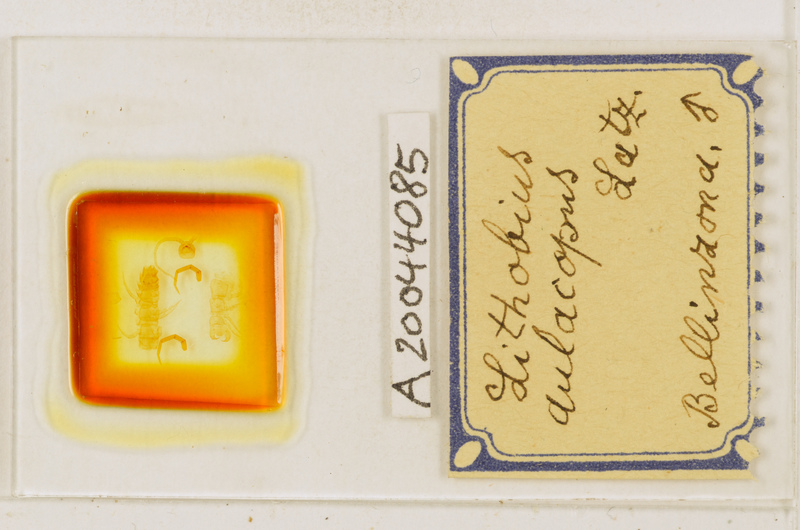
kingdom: Animalia
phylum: Arthropoda
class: Chilopoda
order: Lithobiomorpha
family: Lithobiidae
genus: Lithobius
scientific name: Lithobius macilentus
